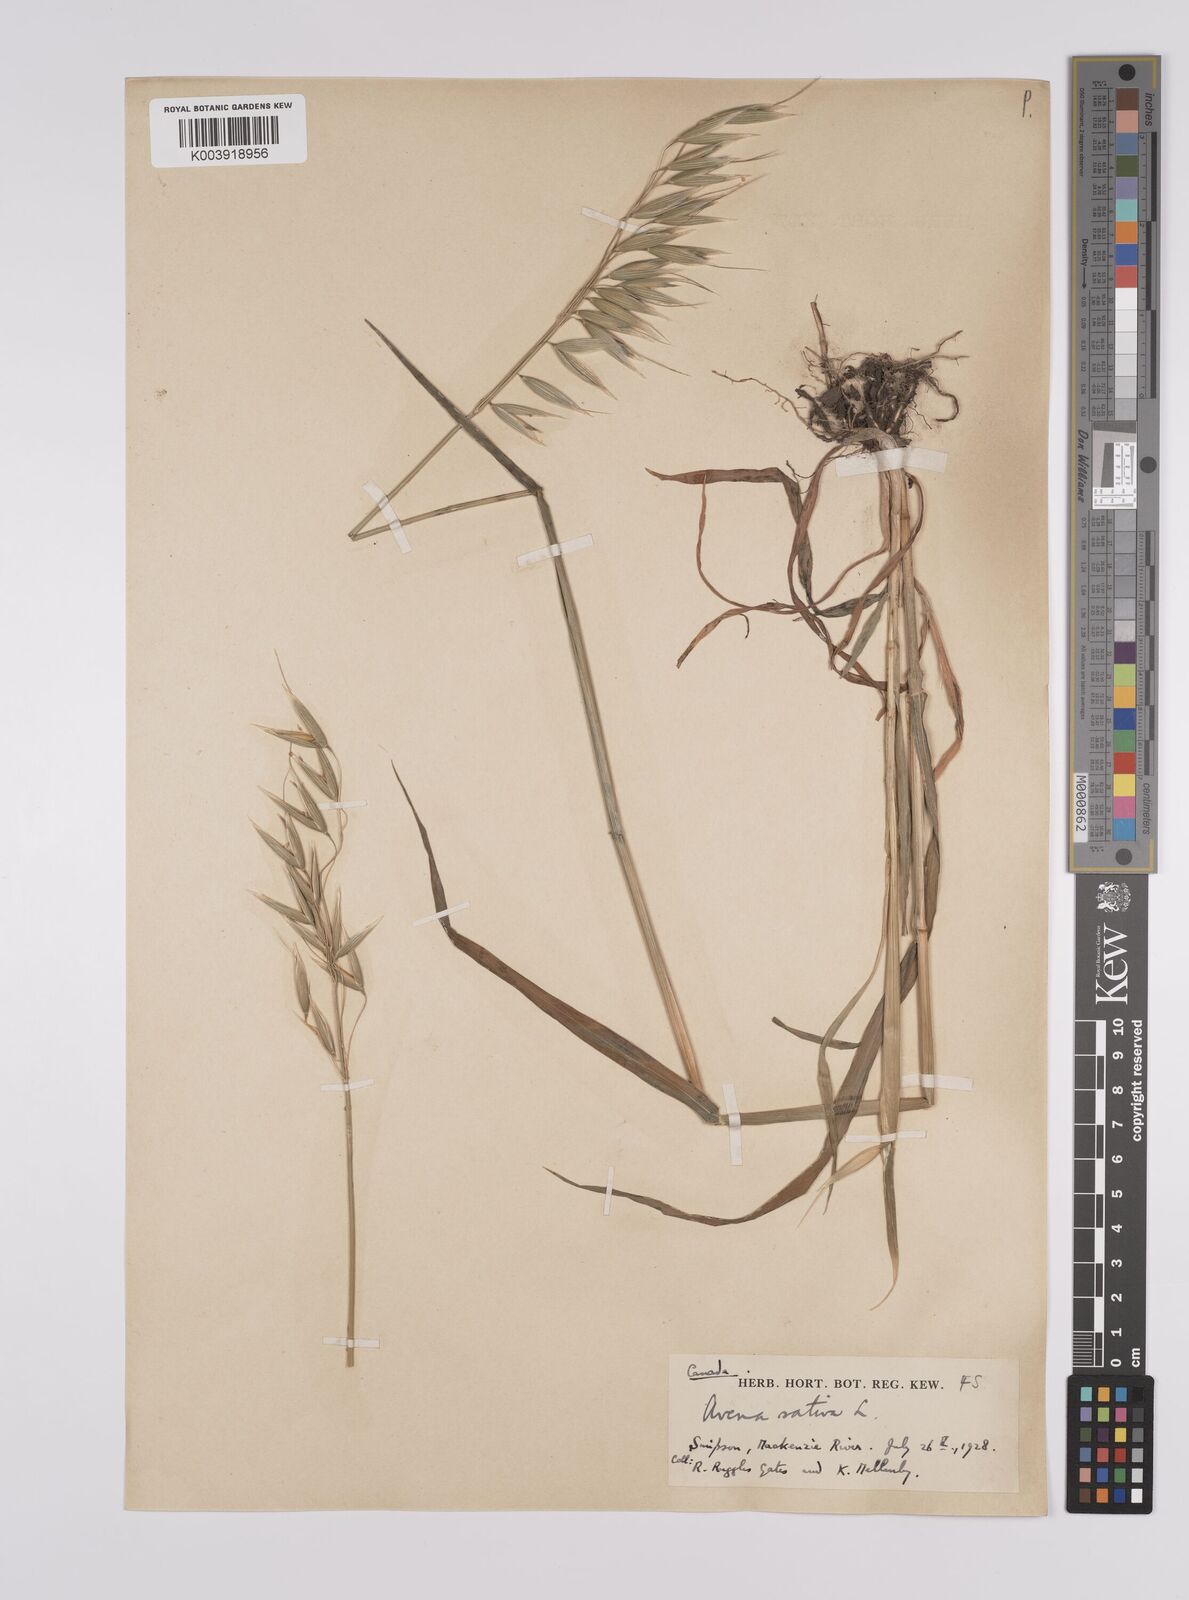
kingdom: Plantae
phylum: Tracheophyta
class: Liliopsida
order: Poales
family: Poaceae
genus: Avena
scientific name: Avena sativa
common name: Oat
